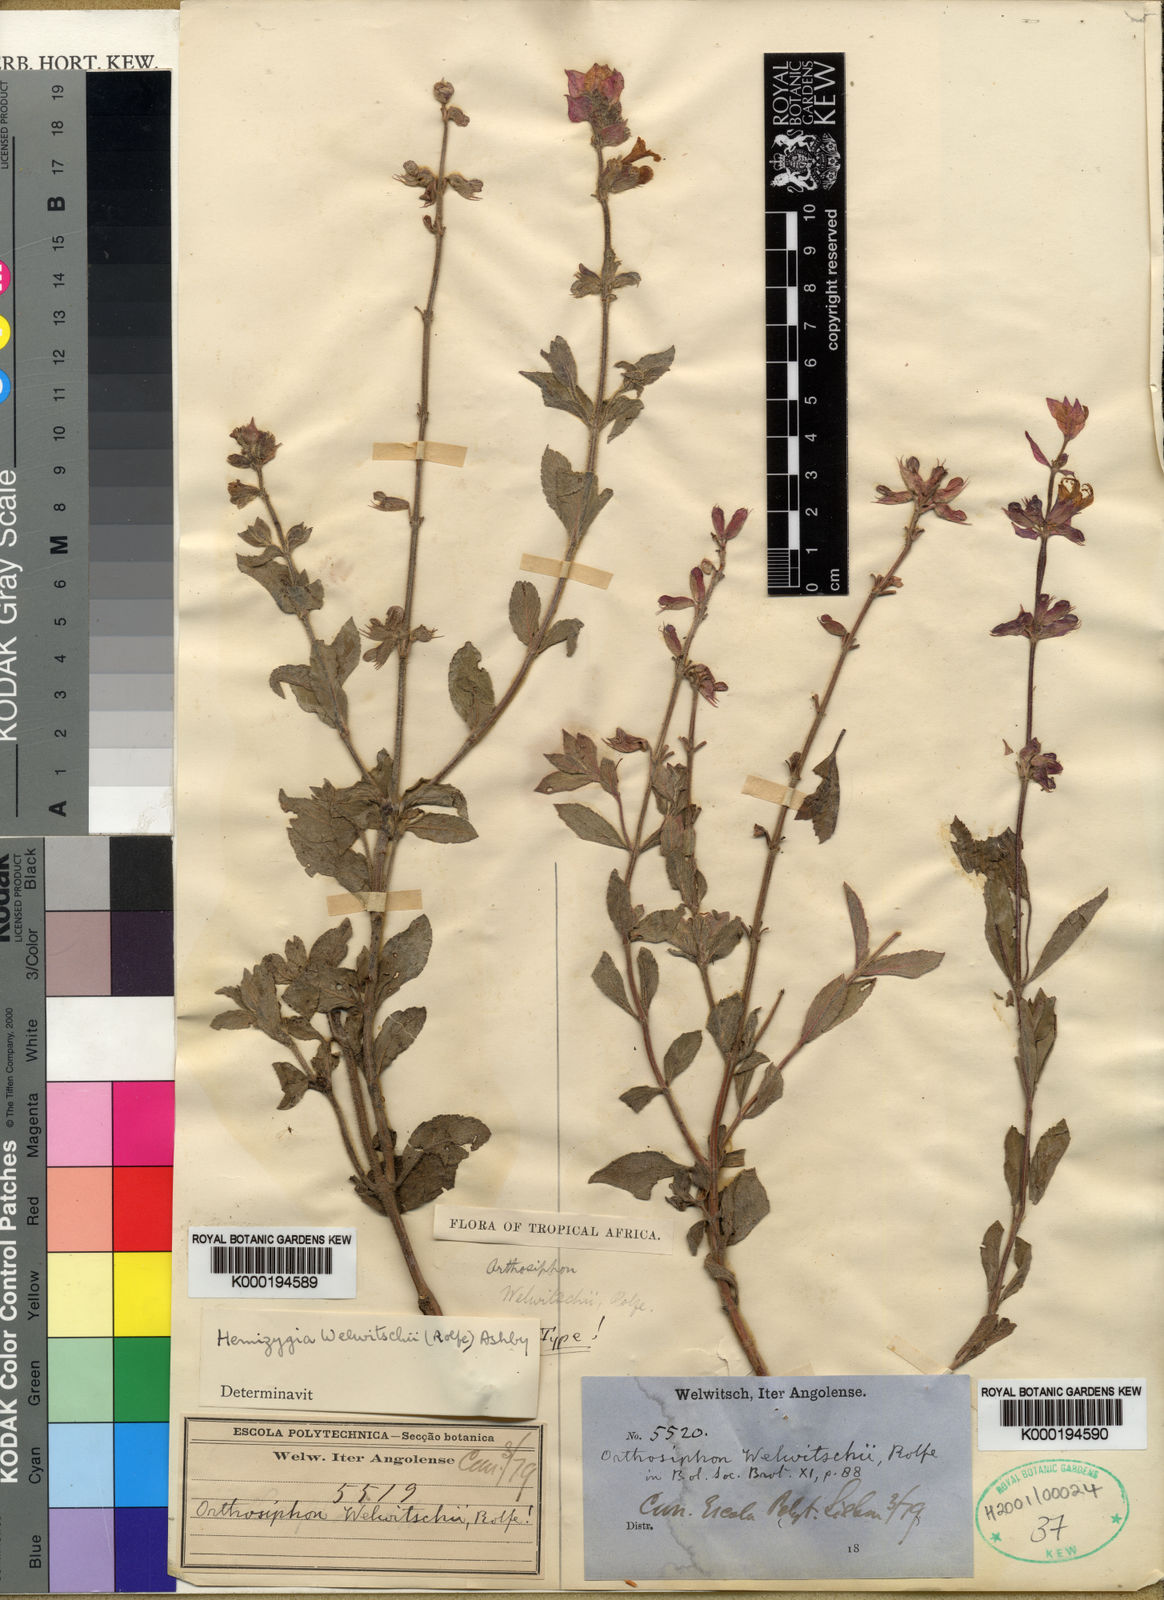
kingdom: Plantae
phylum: Tracheophyta
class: Magnoliopsida
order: Lamiales
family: Lamiaceae
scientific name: Lamiaceae
